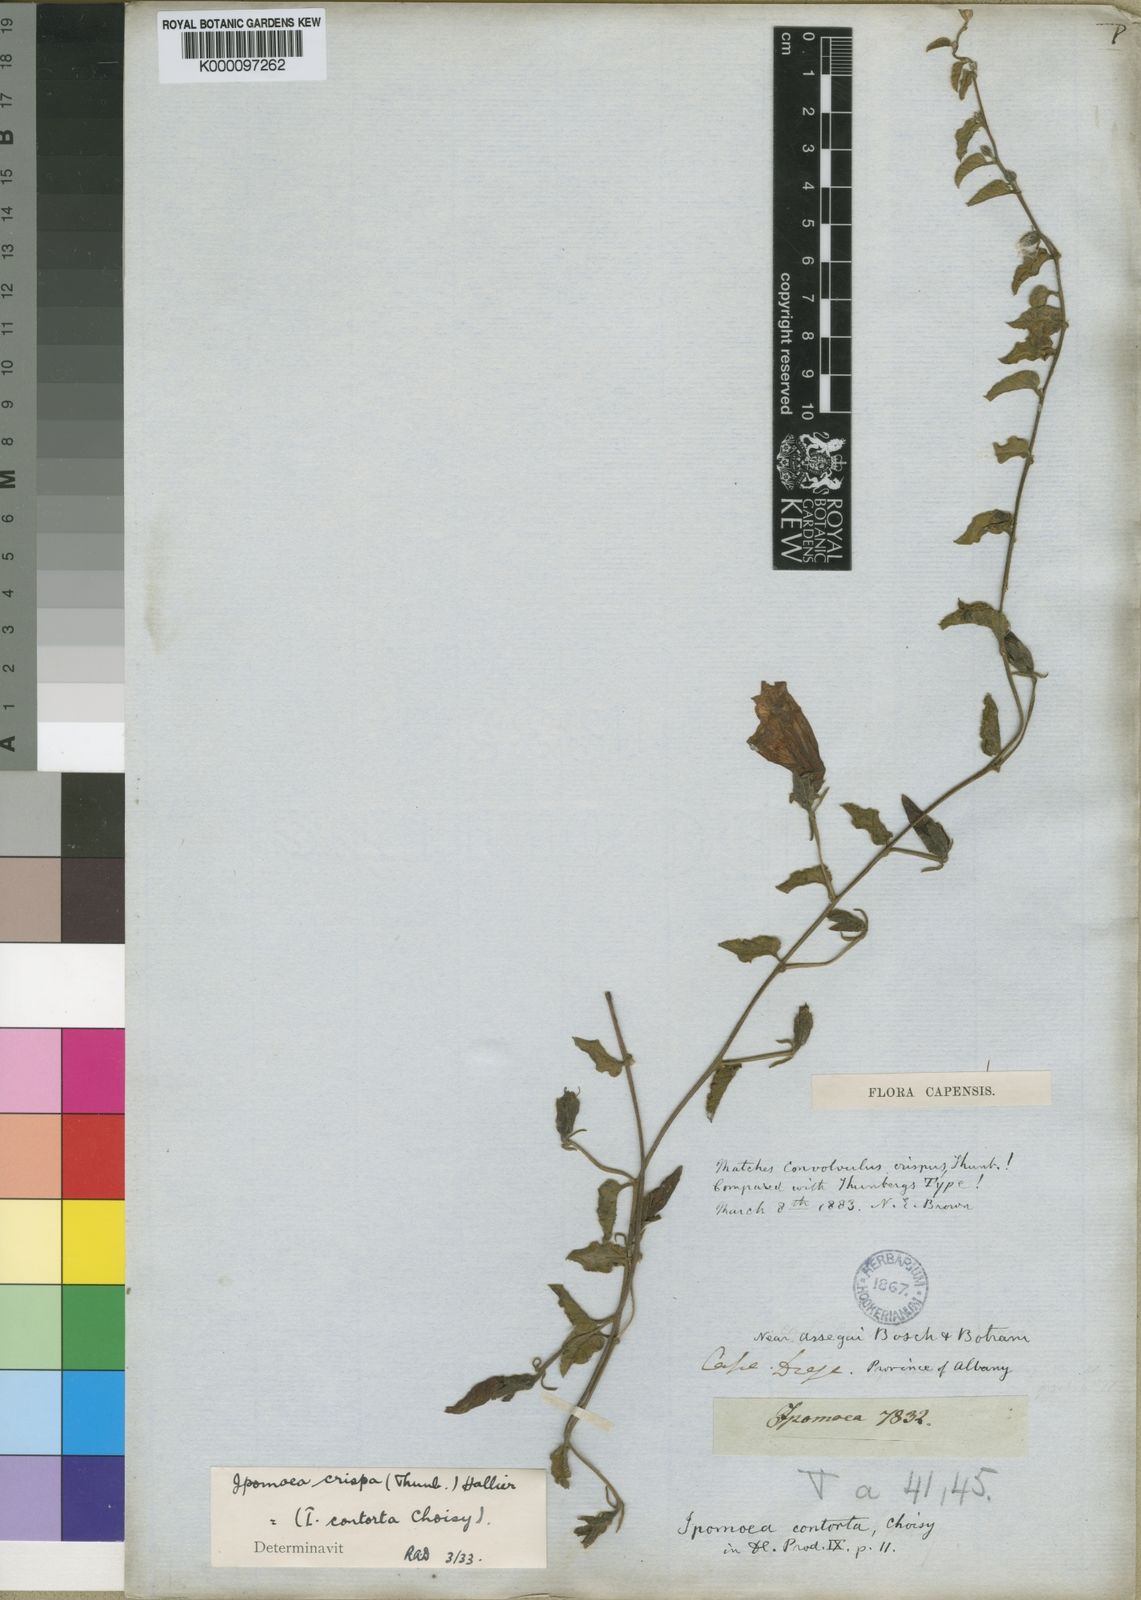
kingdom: Plantae
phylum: Tracheophyta
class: Magnoliopsida
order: Solanales
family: Convolvulaceae
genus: Ipomoea
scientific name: Ipomoea crispa
